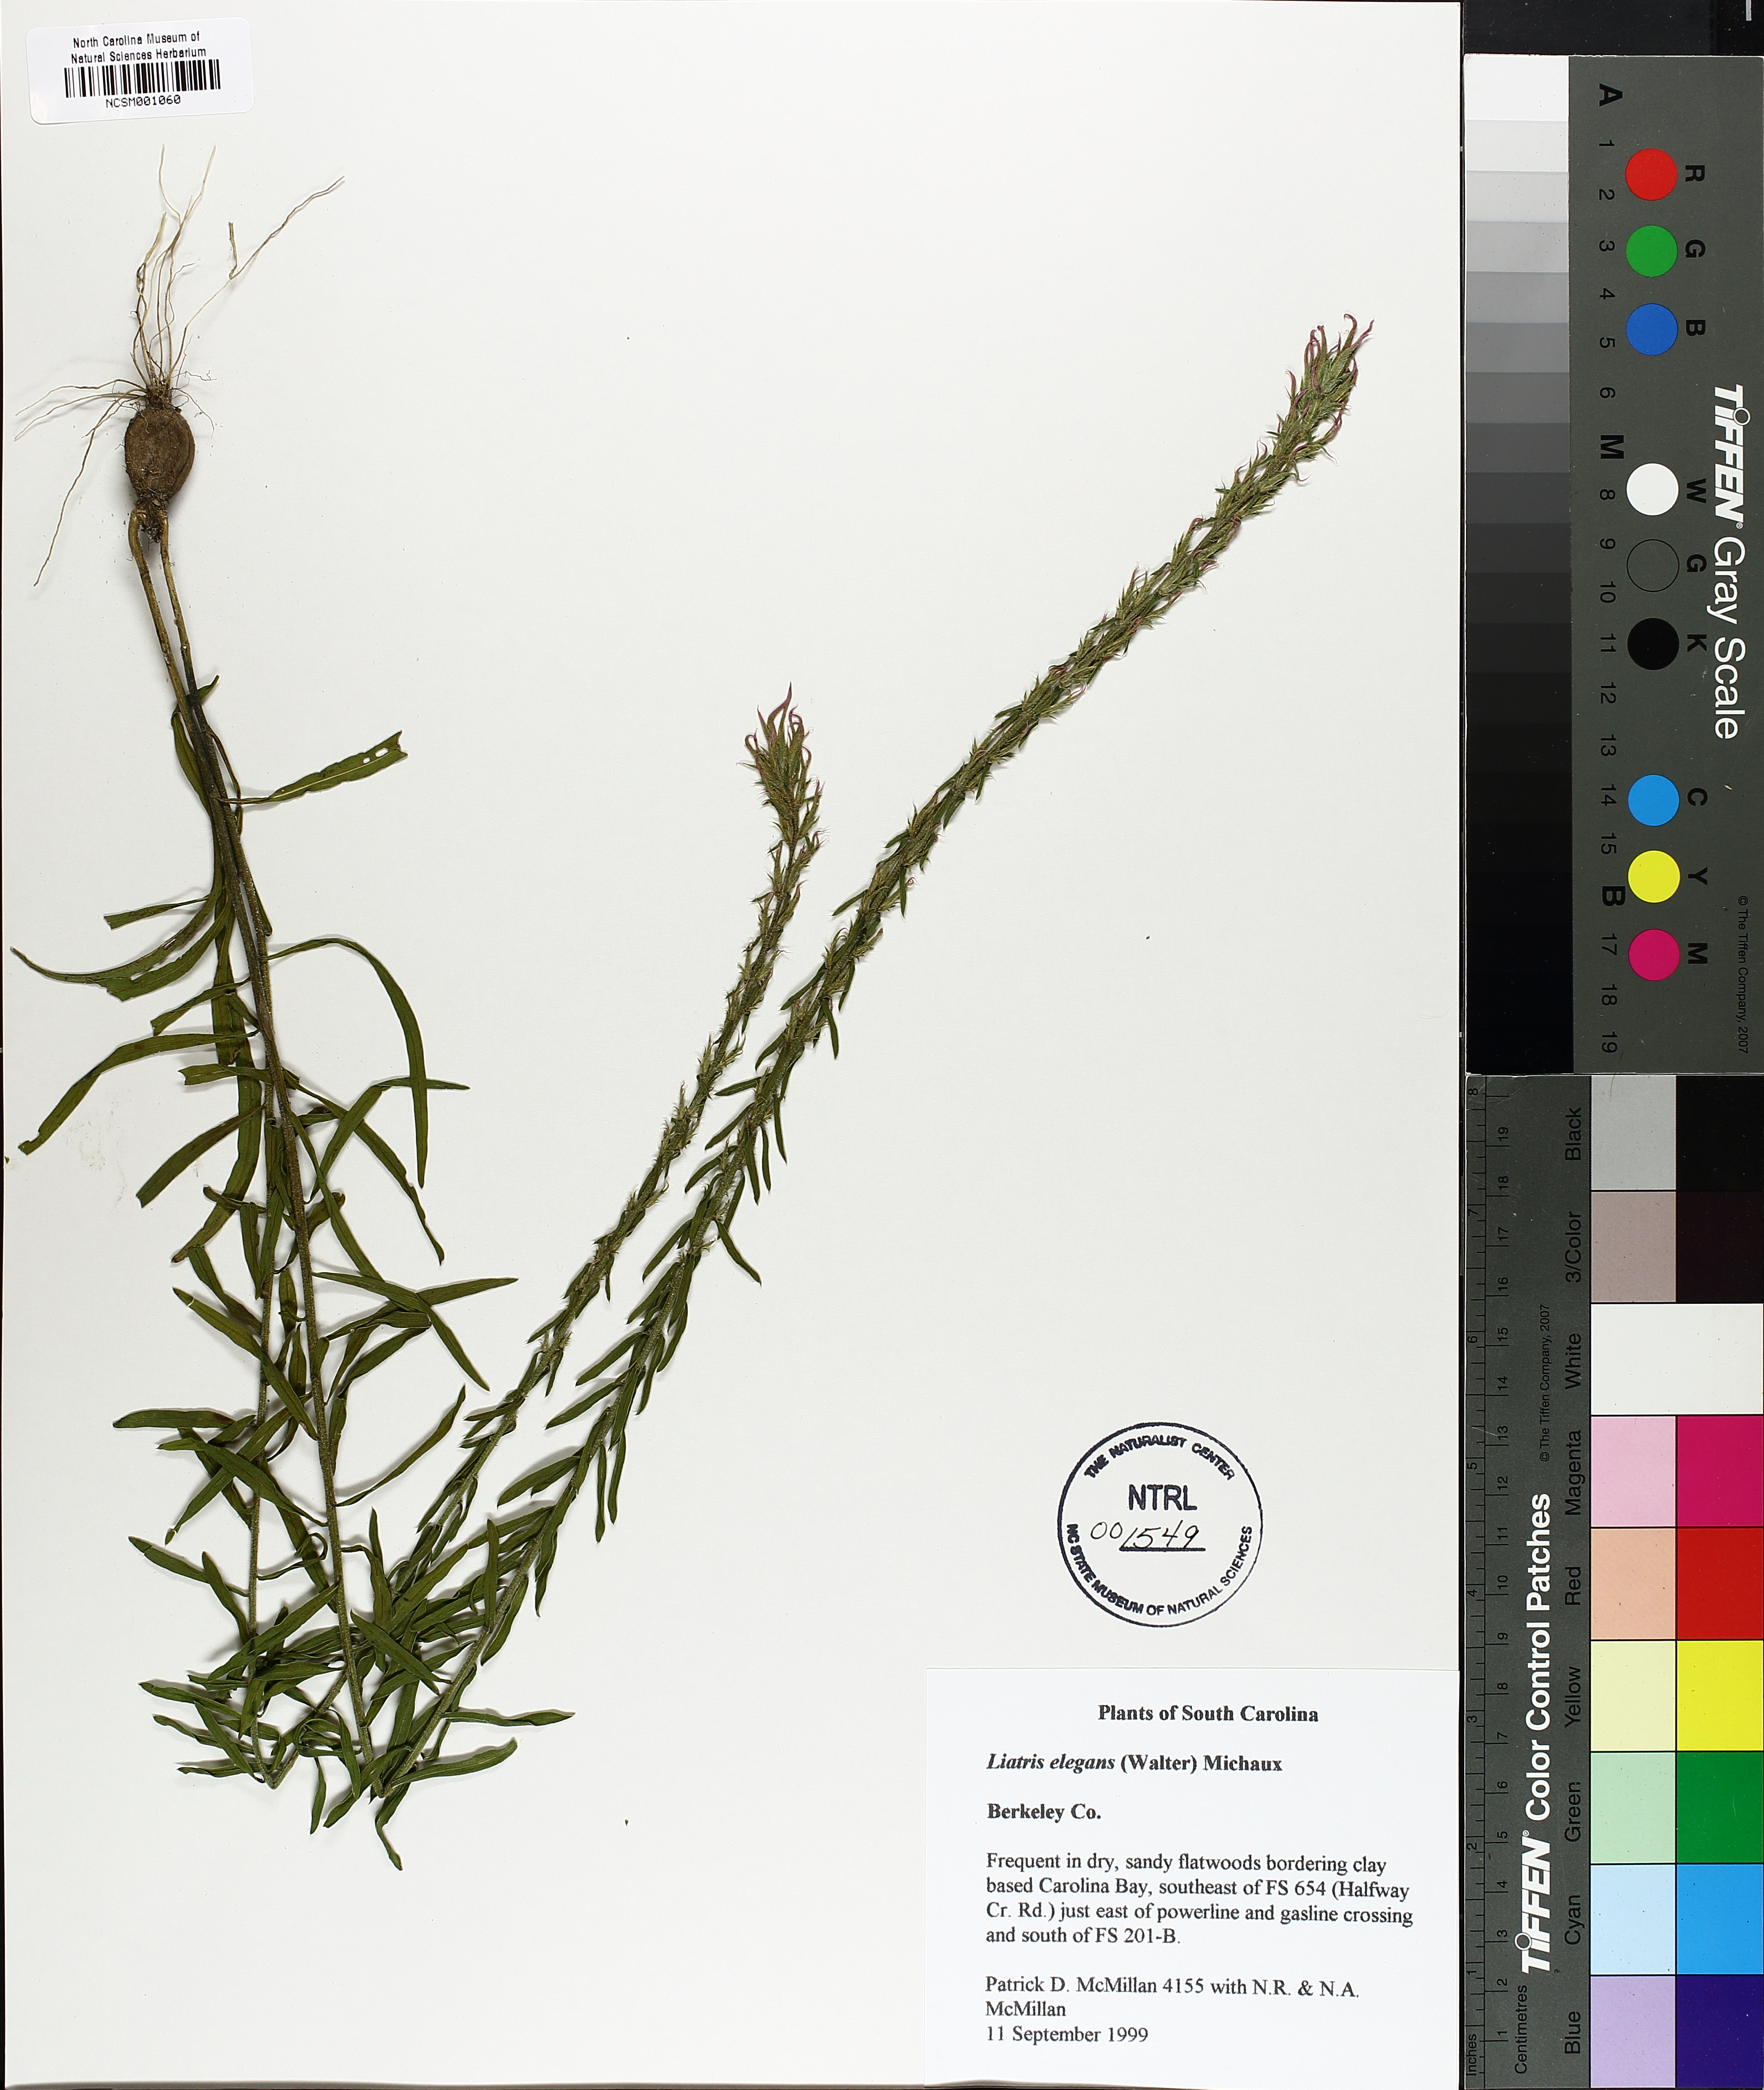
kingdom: Plantae
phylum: Tracheophyta
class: Magnoliopsida
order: Asterales
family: Asteraceae
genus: Liatris
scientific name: Liatris elegans
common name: Pinkscale gayfeather
